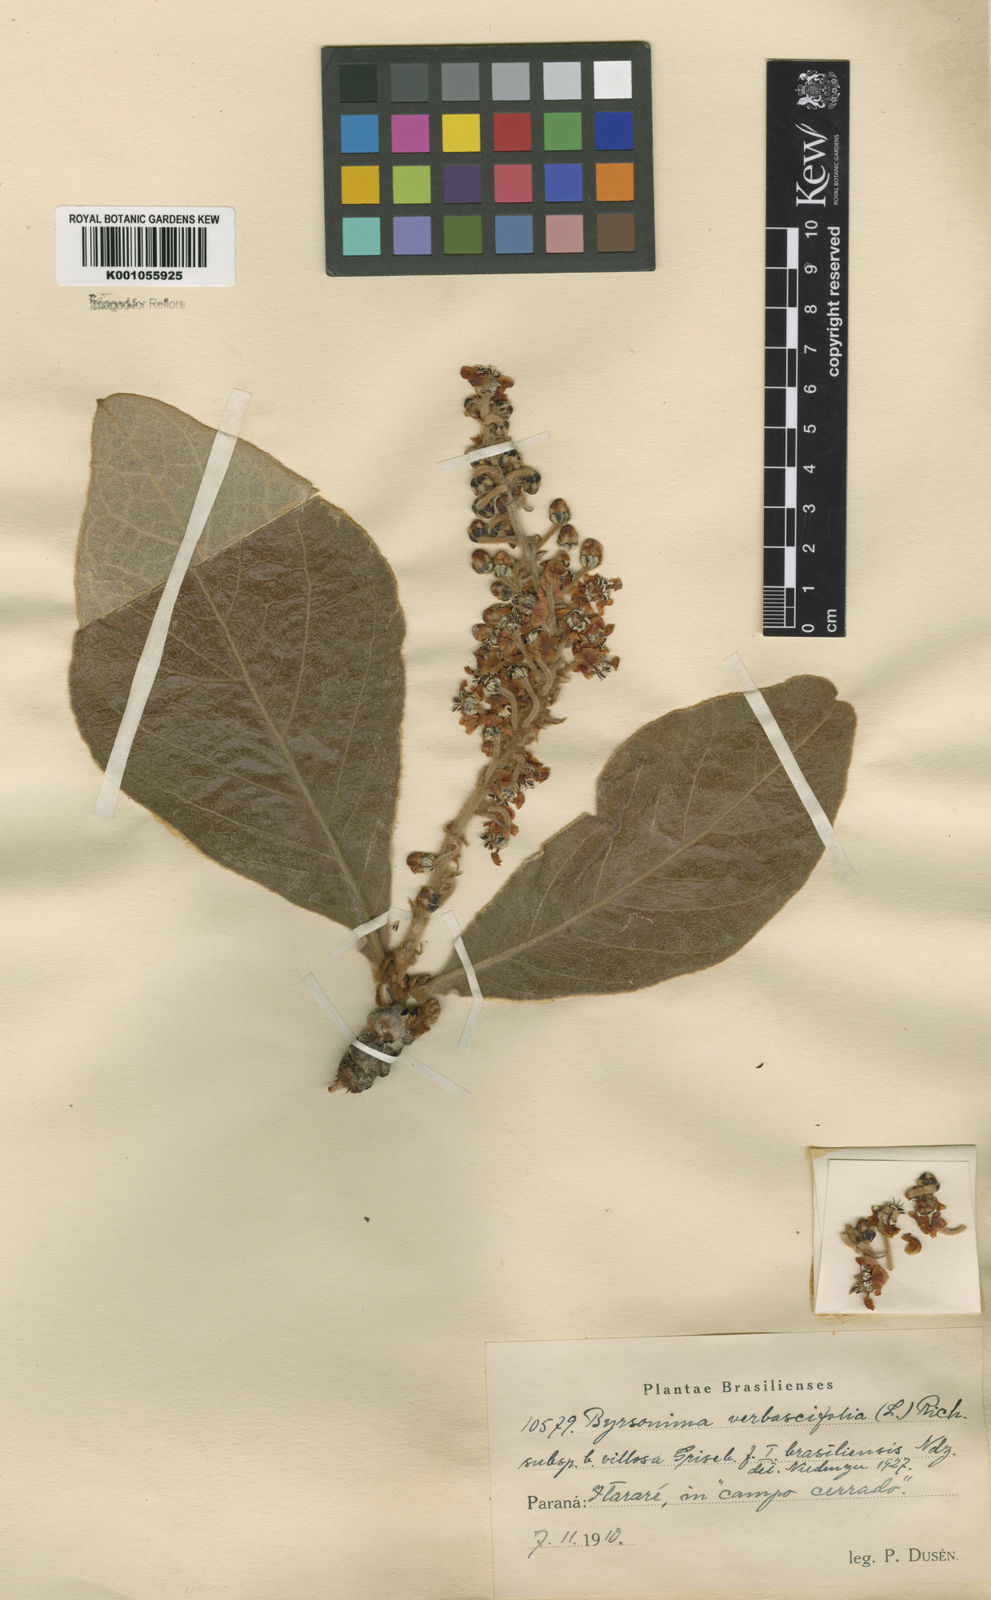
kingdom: Plantae
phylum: Tracheophyta
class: Magnoliopsida
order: Malpighiales
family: Malpighiaceae
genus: Byrsonima
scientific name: Byrsonima verbascifolia
